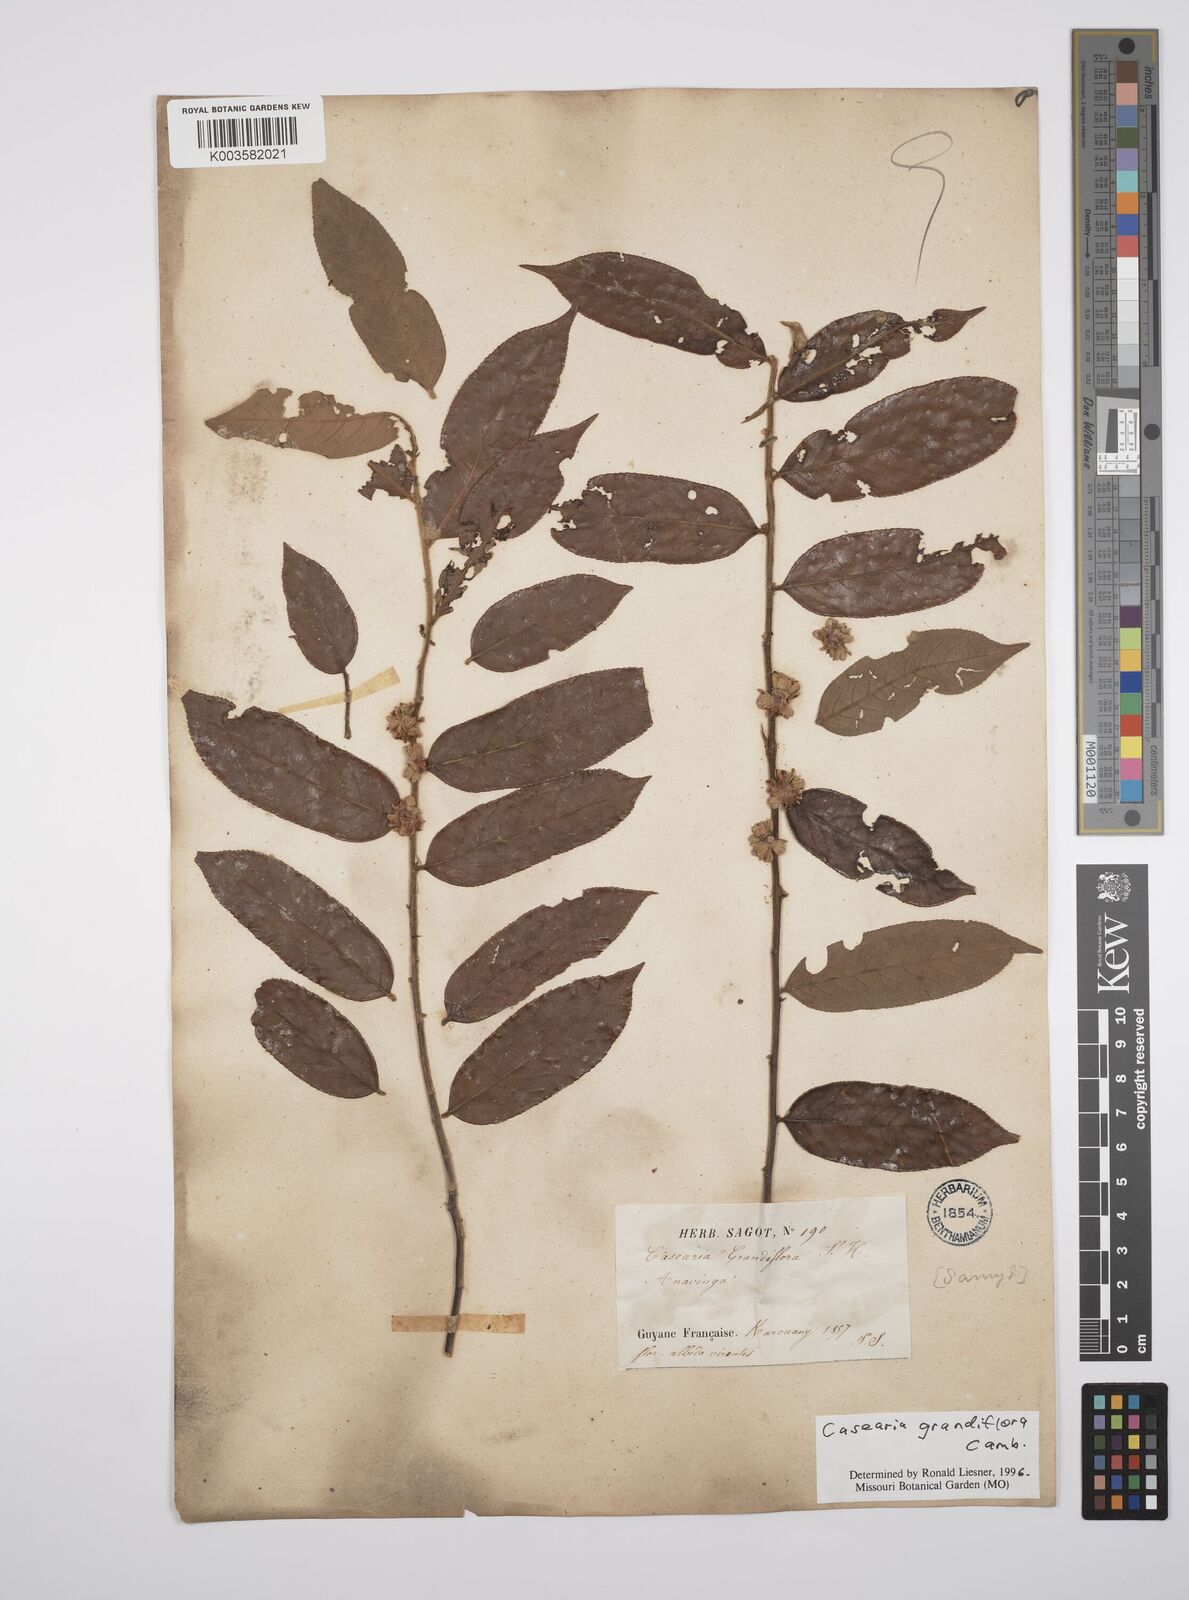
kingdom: Plantae
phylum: Tracheophyta
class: Magnoliopsida
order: Malpighiales
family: Salicaceae
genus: Casearia
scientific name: Casearia grandiflora
